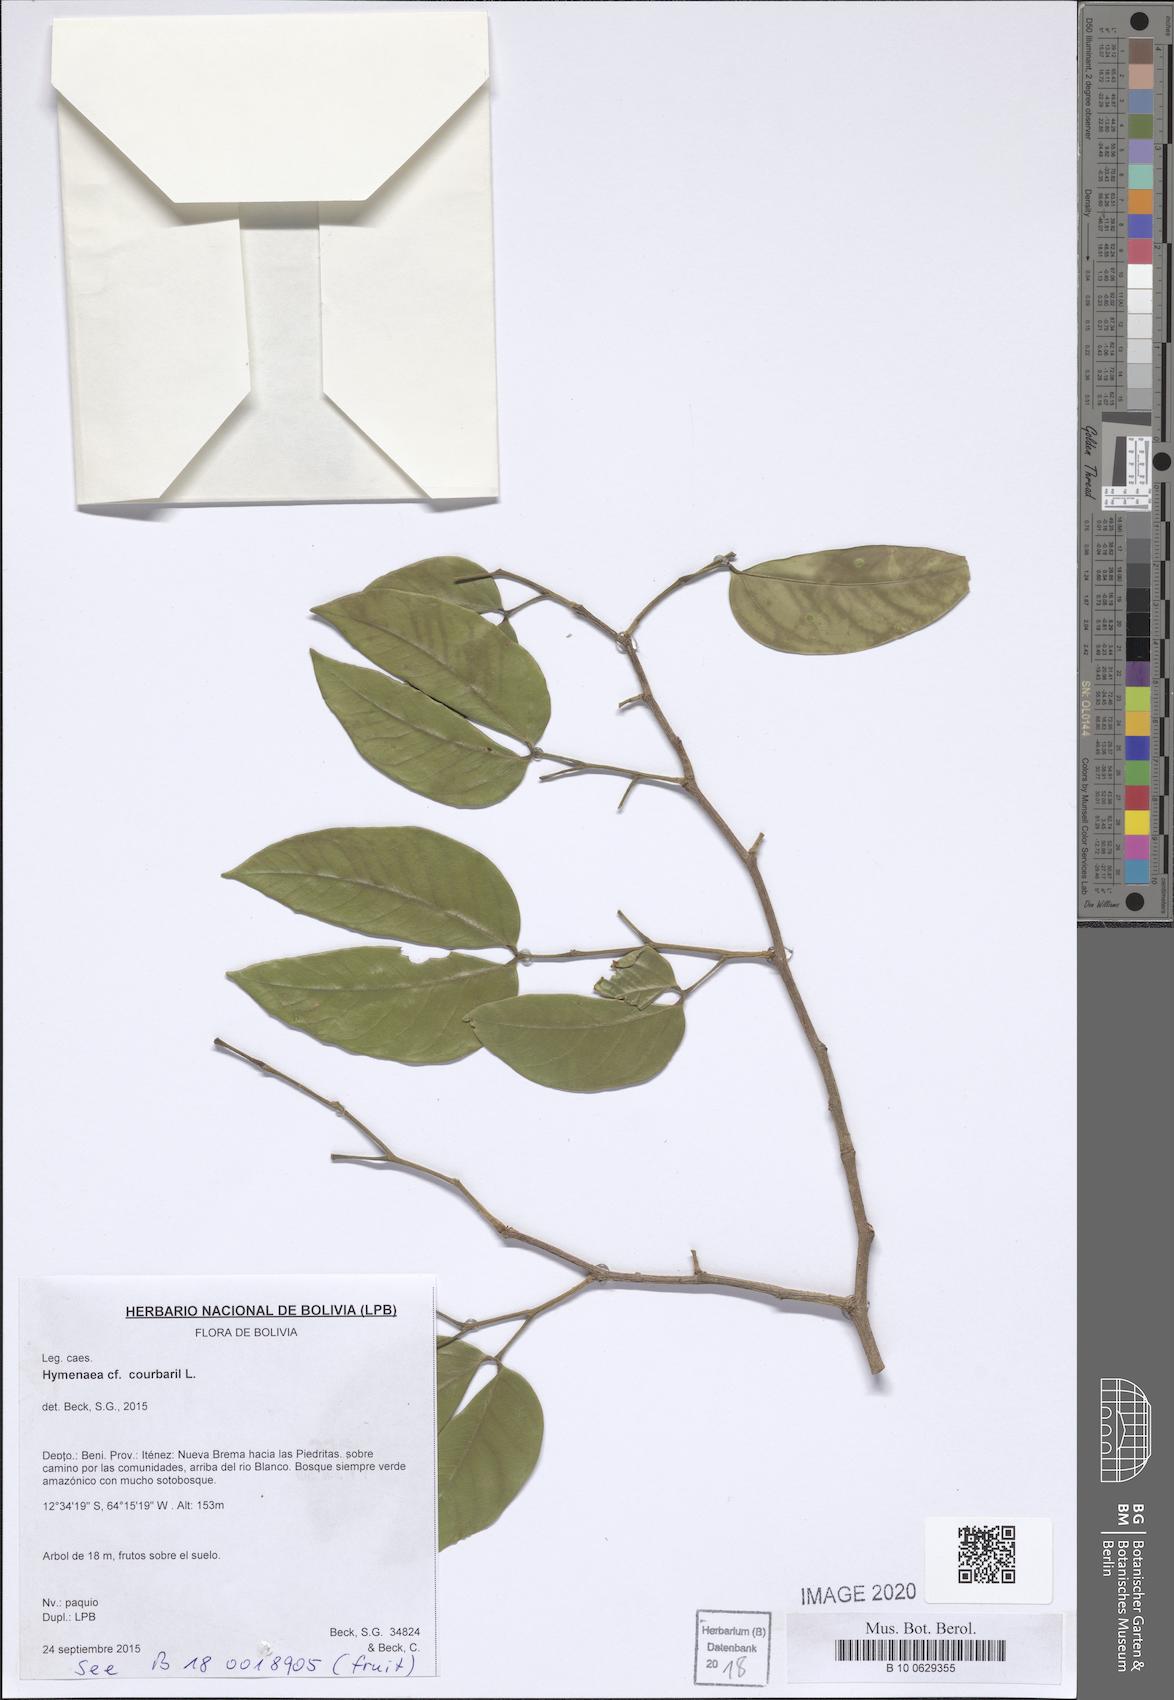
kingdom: Plantae
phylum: Tracheophyta
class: Magnoliopsida
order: Fabales
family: Fabaceae
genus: Hymenaea
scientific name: Hymenaea courbaril
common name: Brazilian copal
